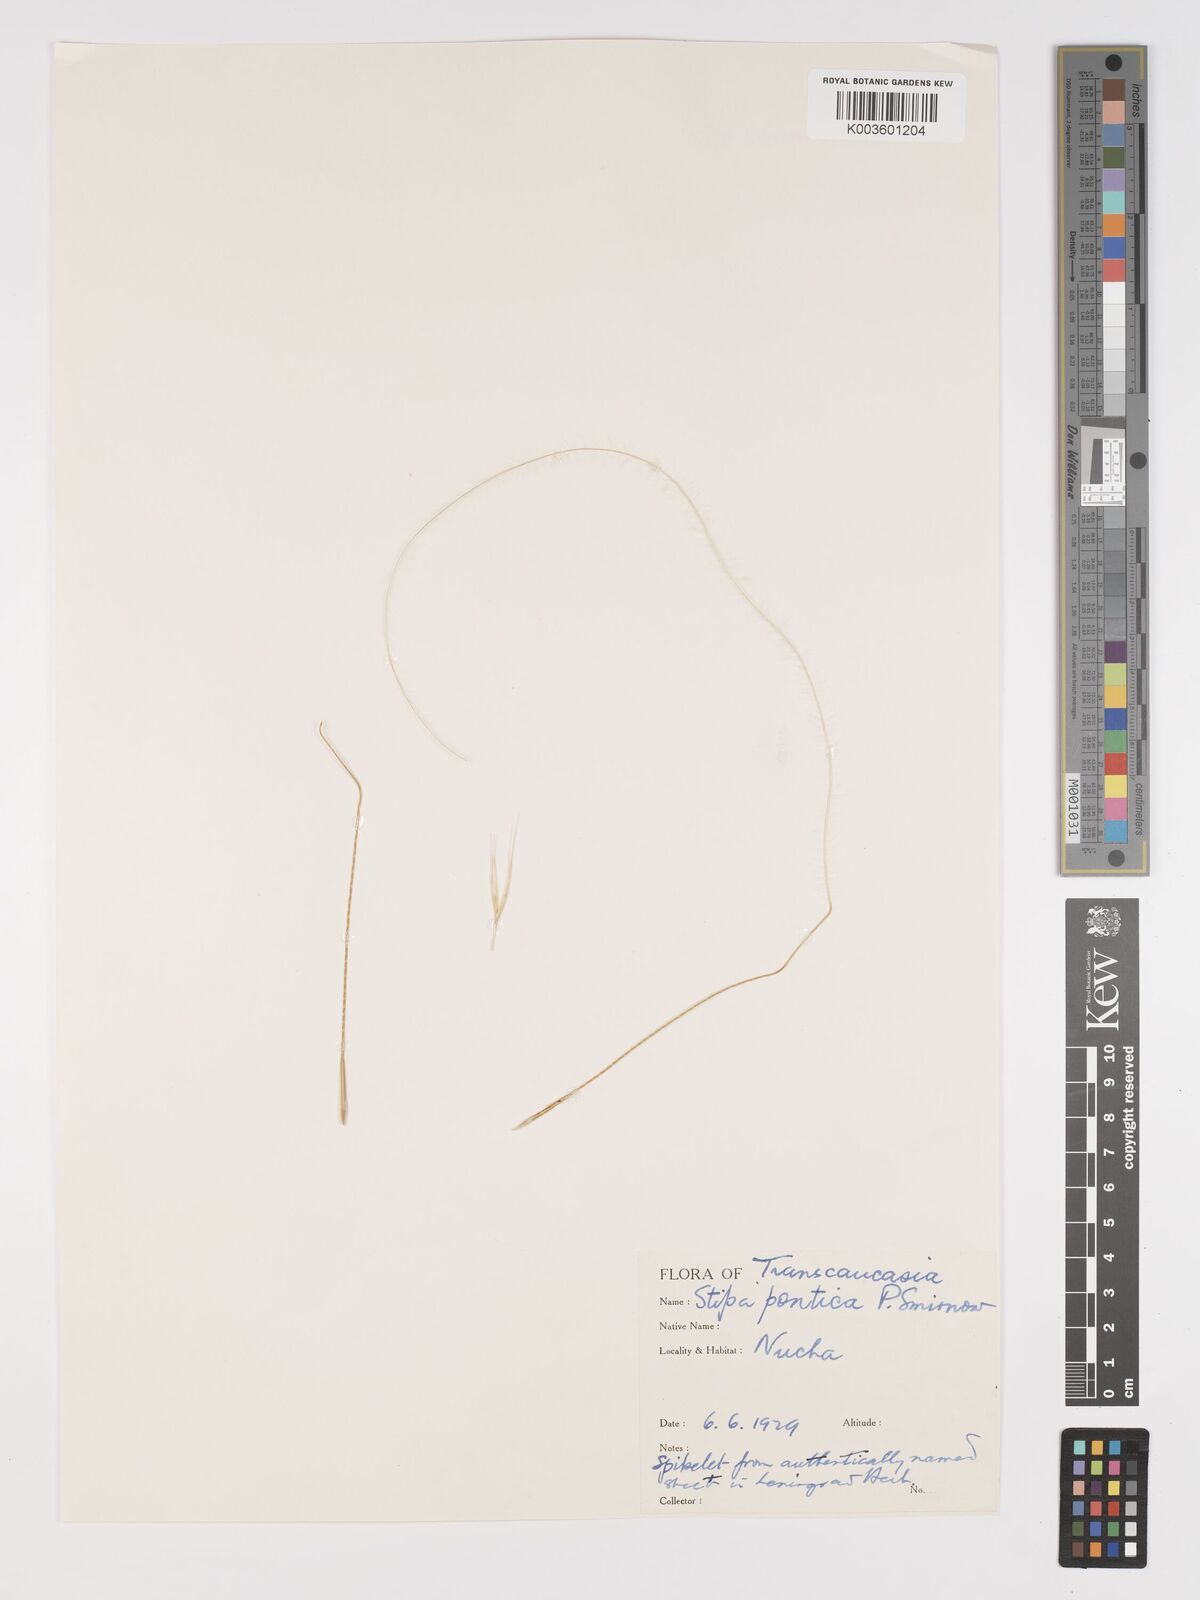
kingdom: Plantae
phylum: Tracheophyta
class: Liliopsida
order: Poales
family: Poaceae
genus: Stipa
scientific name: Stipa
